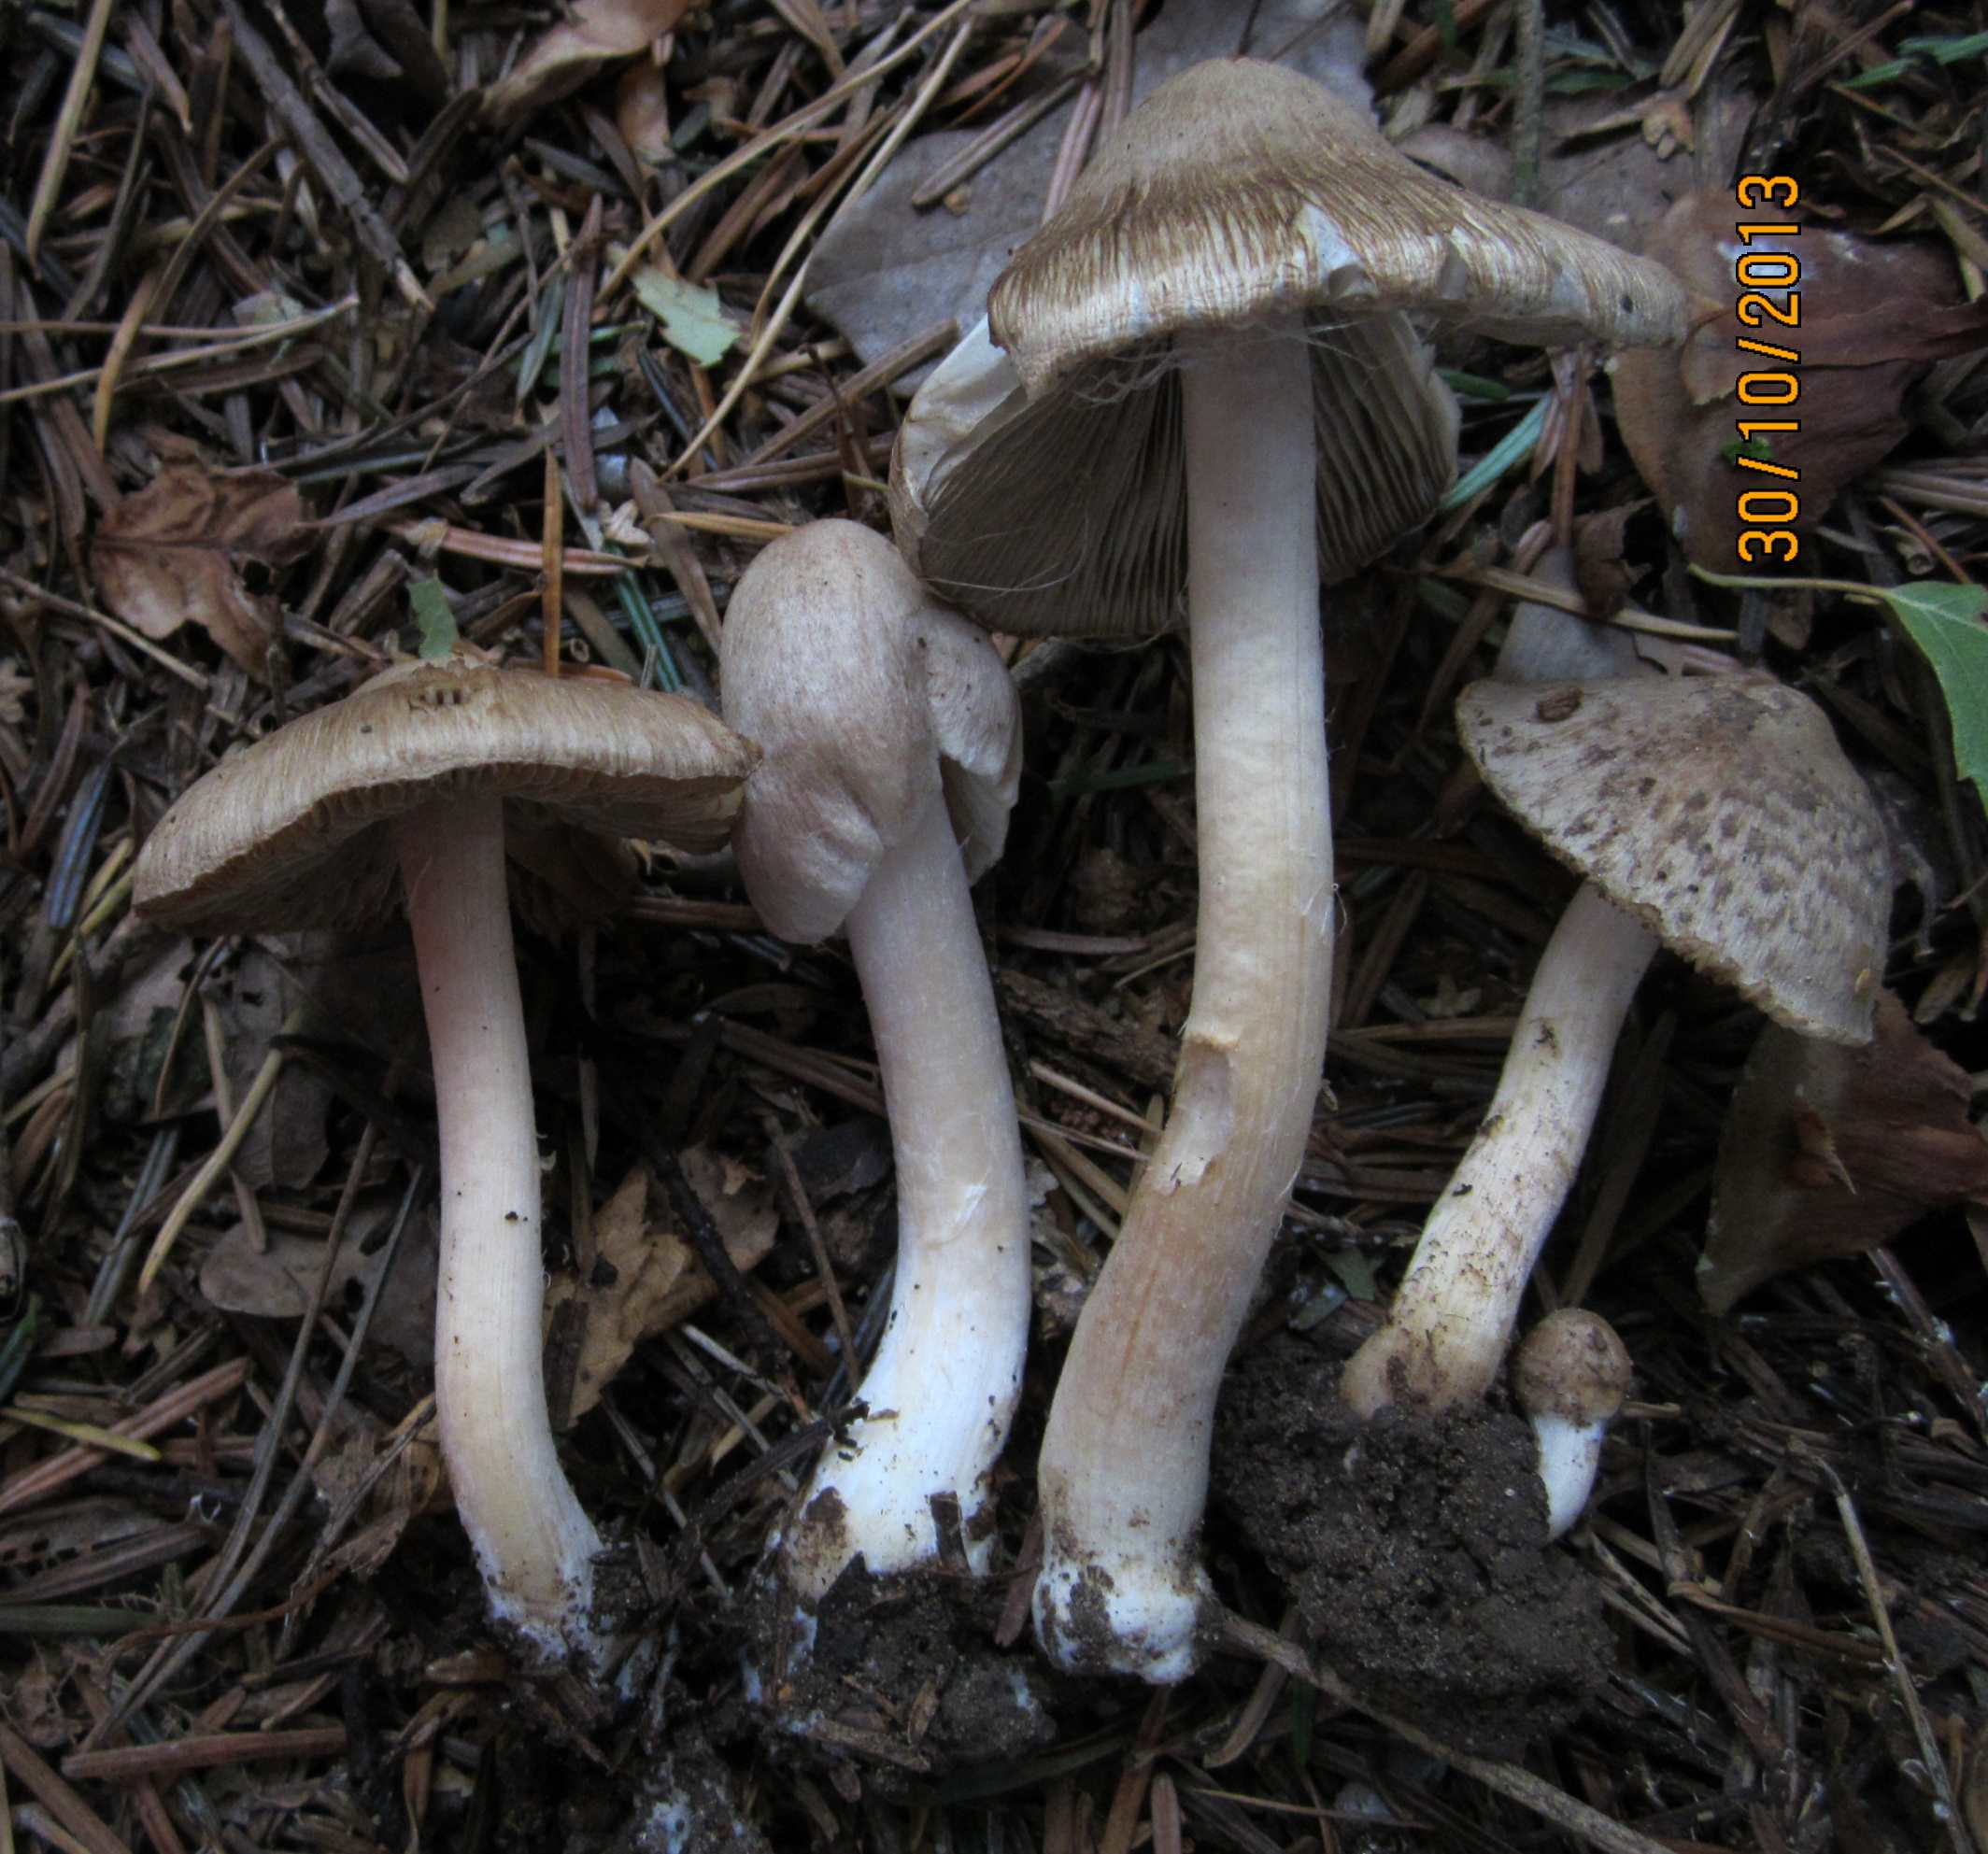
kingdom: Fungi
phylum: Basidiomycota
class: Agaricomycetes
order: Agaricales
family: Inocybaceae
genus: Inocybe
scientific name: Inocybe sindonia
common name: bleg trævlhat
